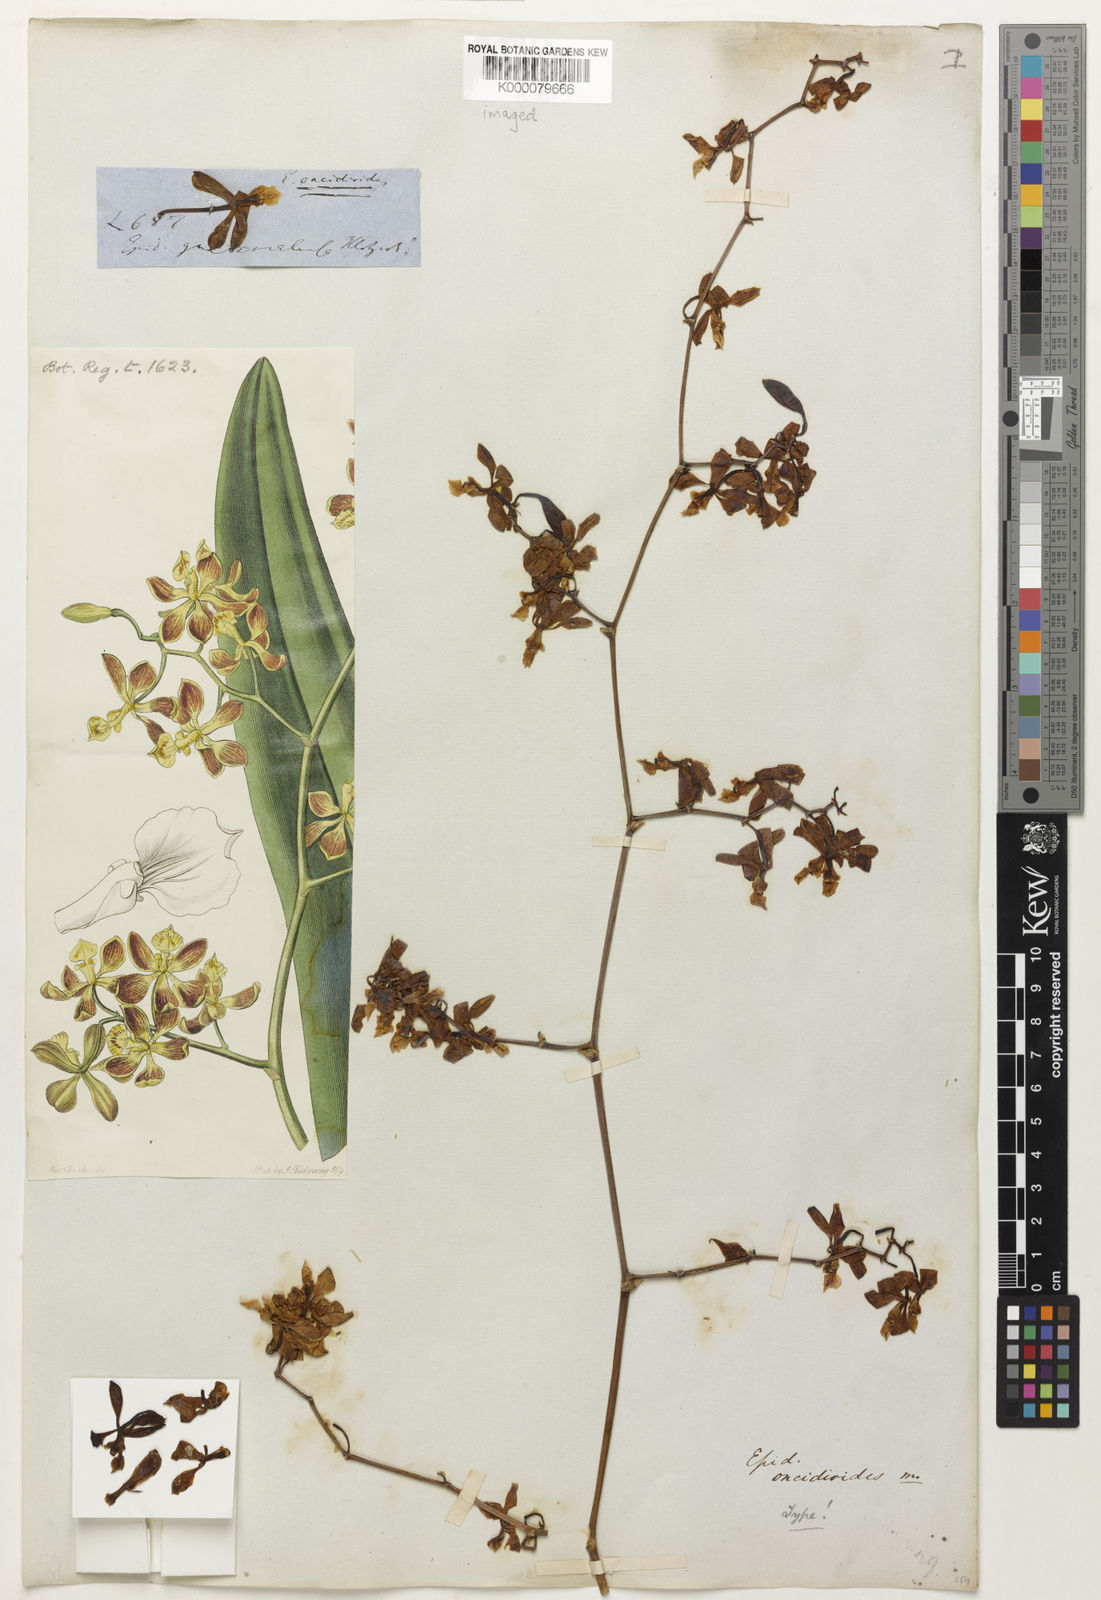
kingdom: Plantae
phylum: Tracheophyta
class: Liliopsida
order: Asparagales
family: Orchidaceae
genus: Encyclia
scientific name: Encyclia oncidioides
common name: Heavyfruit butterfly orchid
